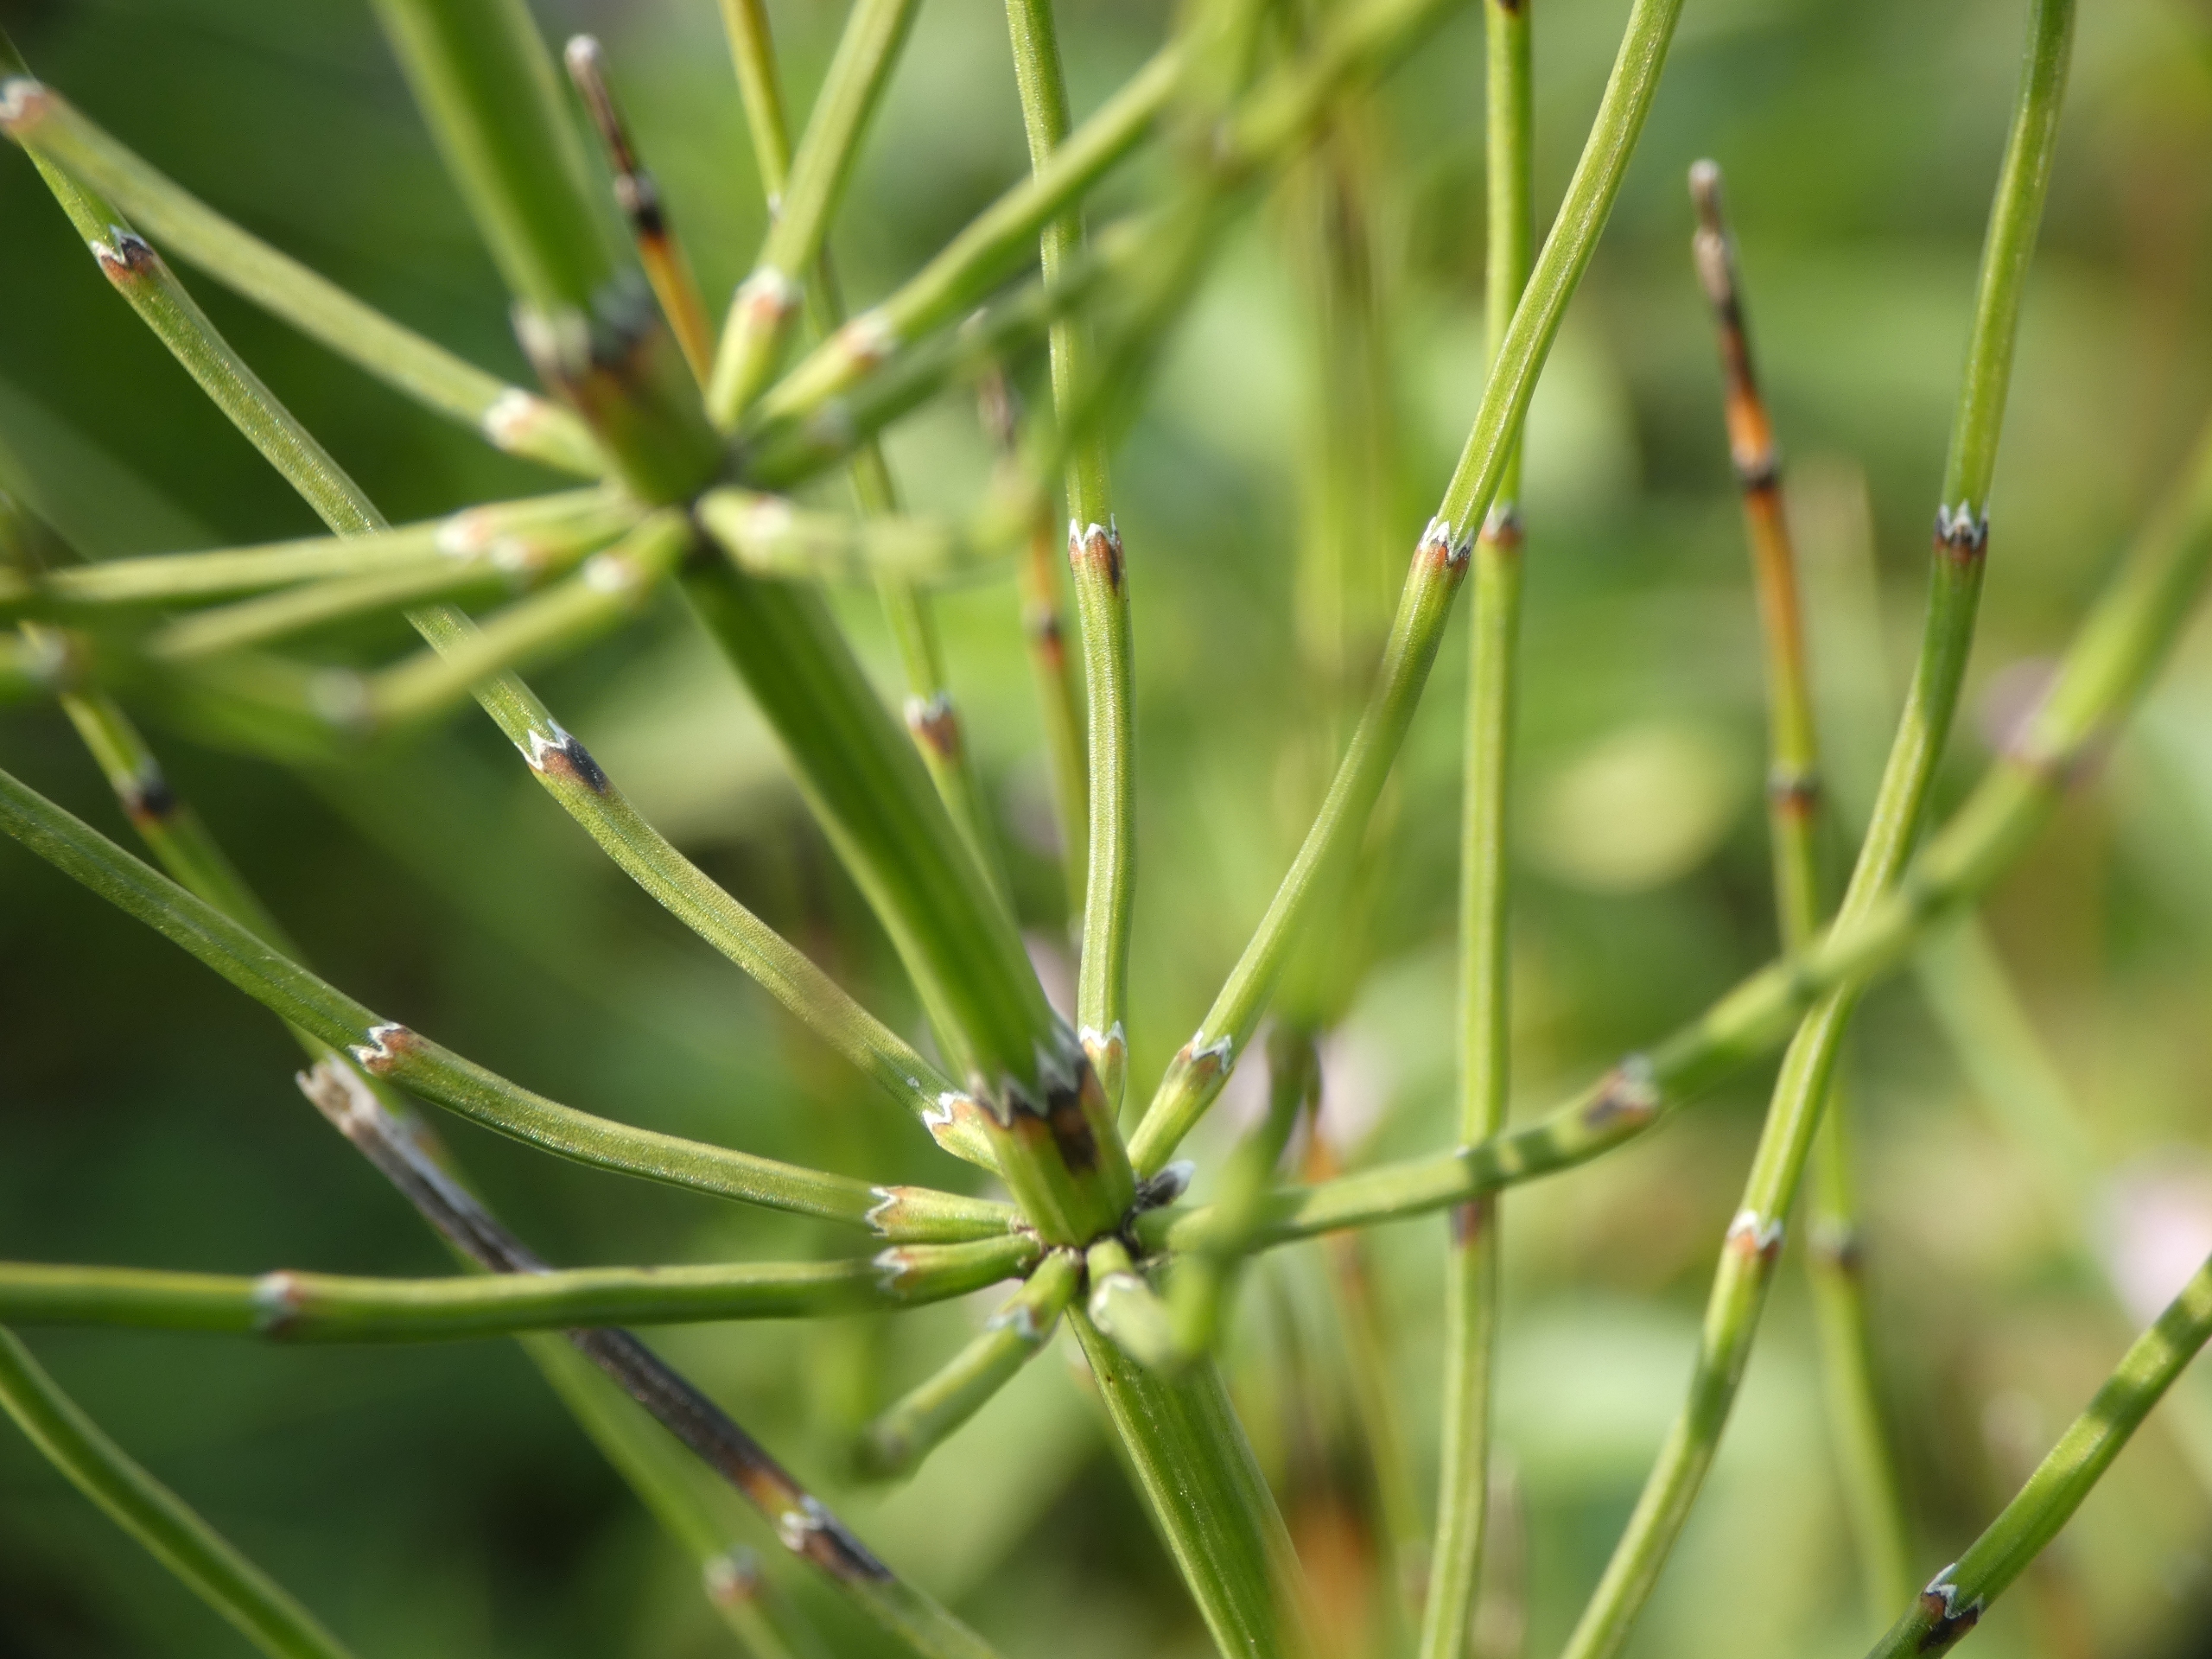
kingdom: Plantae
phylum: Tracheophyta
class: Polypodiopsida
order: Equisetales
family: Equisetaceae
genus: Equisetum
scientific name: Equisetum palustre
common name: Kær-padderok
